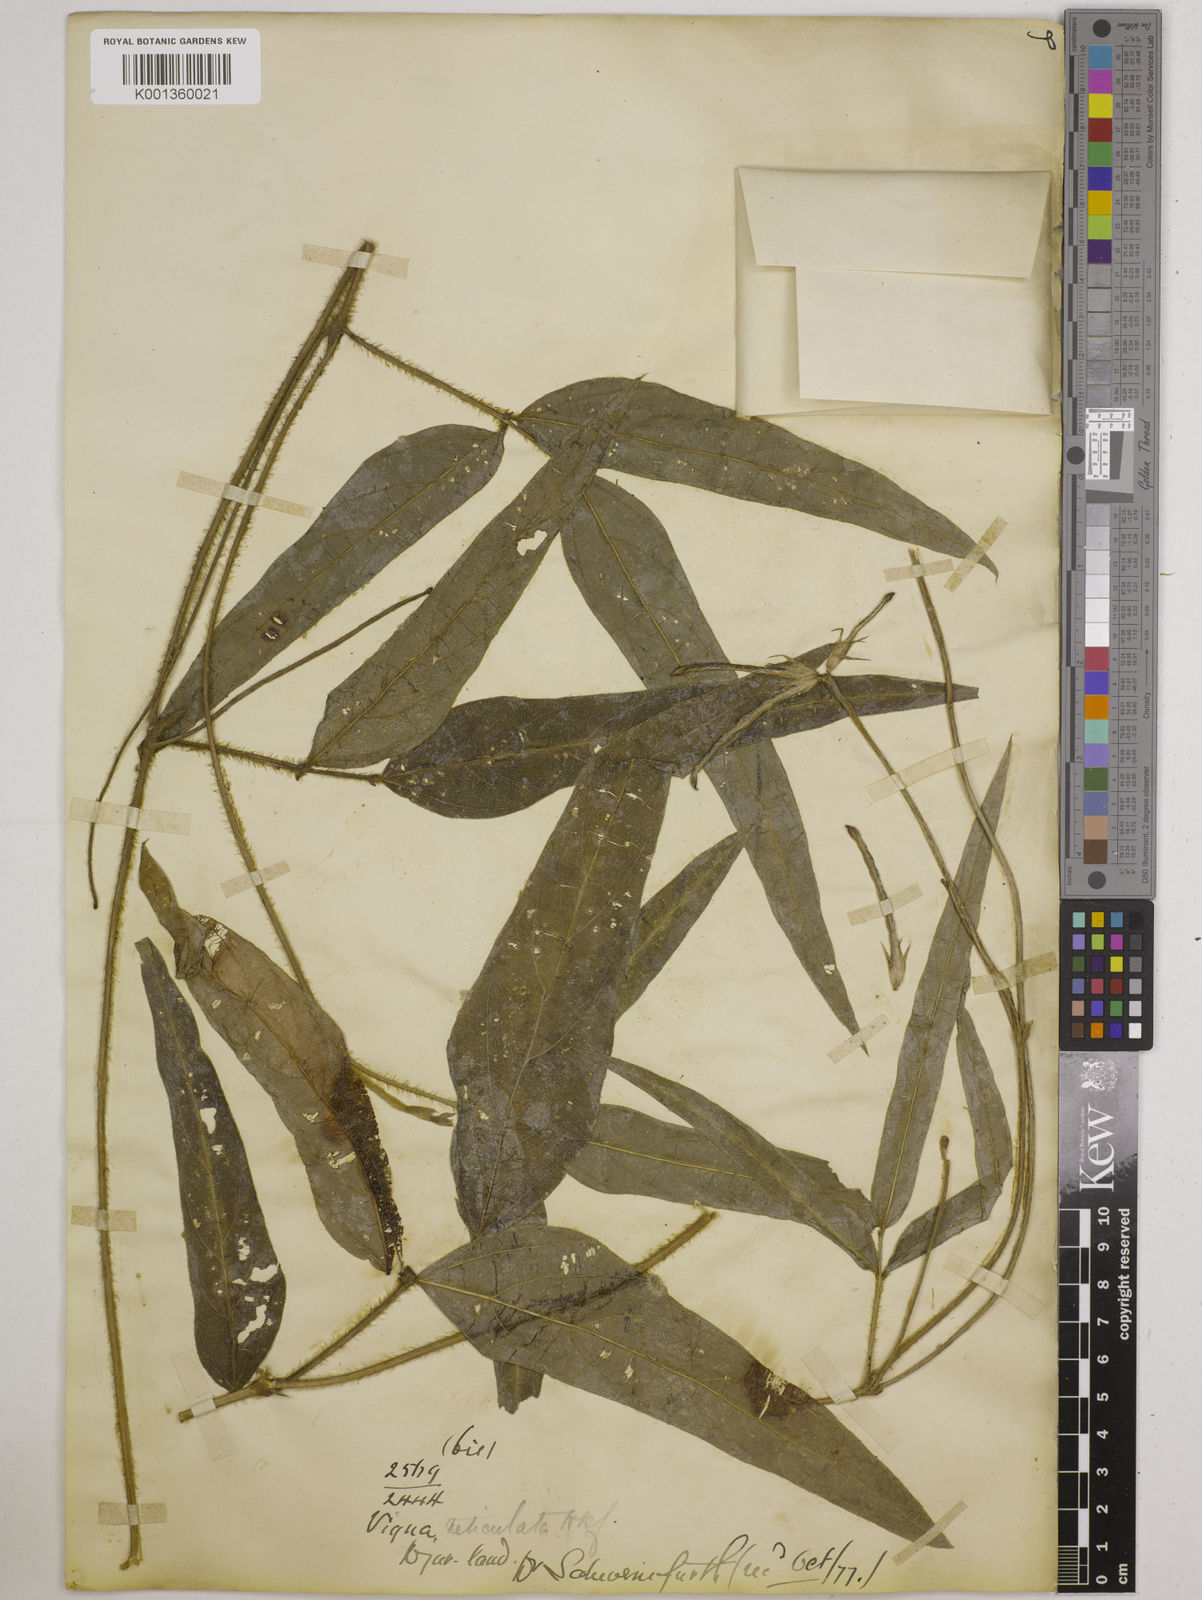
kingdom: Plantae
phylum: Tracheophyta
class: Magnoliopsida
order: Fabales
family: Fabaceae
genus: Vigna
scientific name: Vigna reticulata
